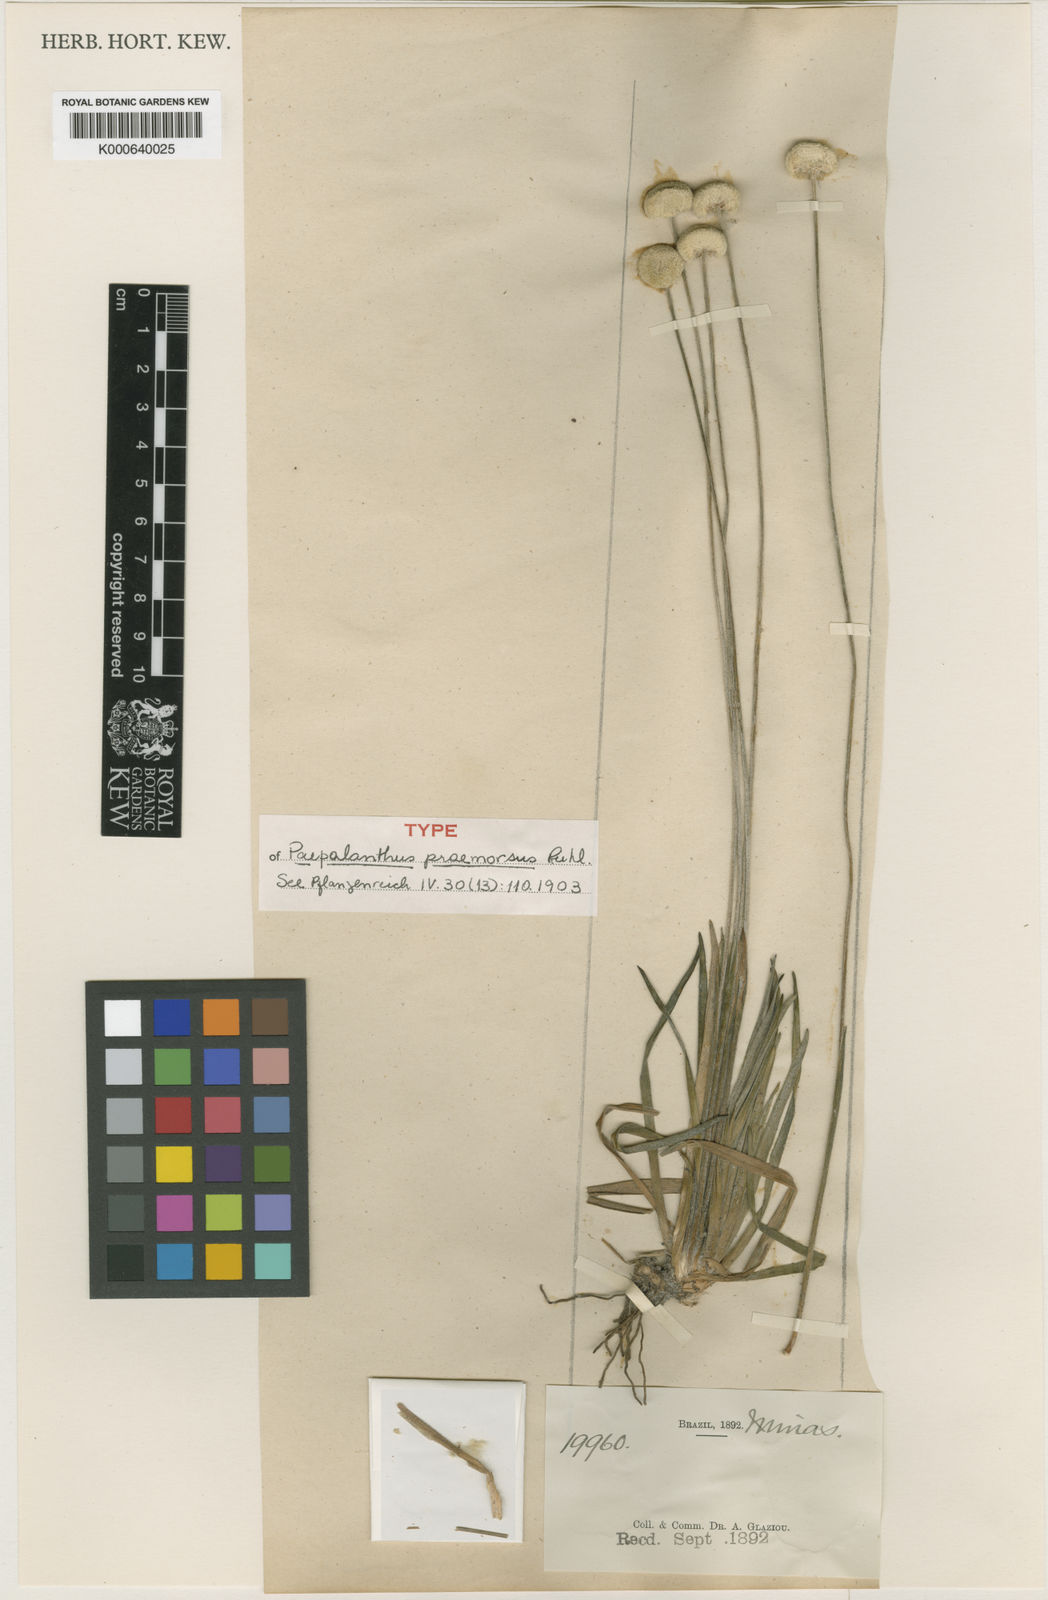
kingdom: Plantae
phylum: Tracheophyta
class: Liliopsida
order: Poales
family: Eriocaulaceae
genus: Paepalanthus
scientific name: Paepalanthus praemorsus
